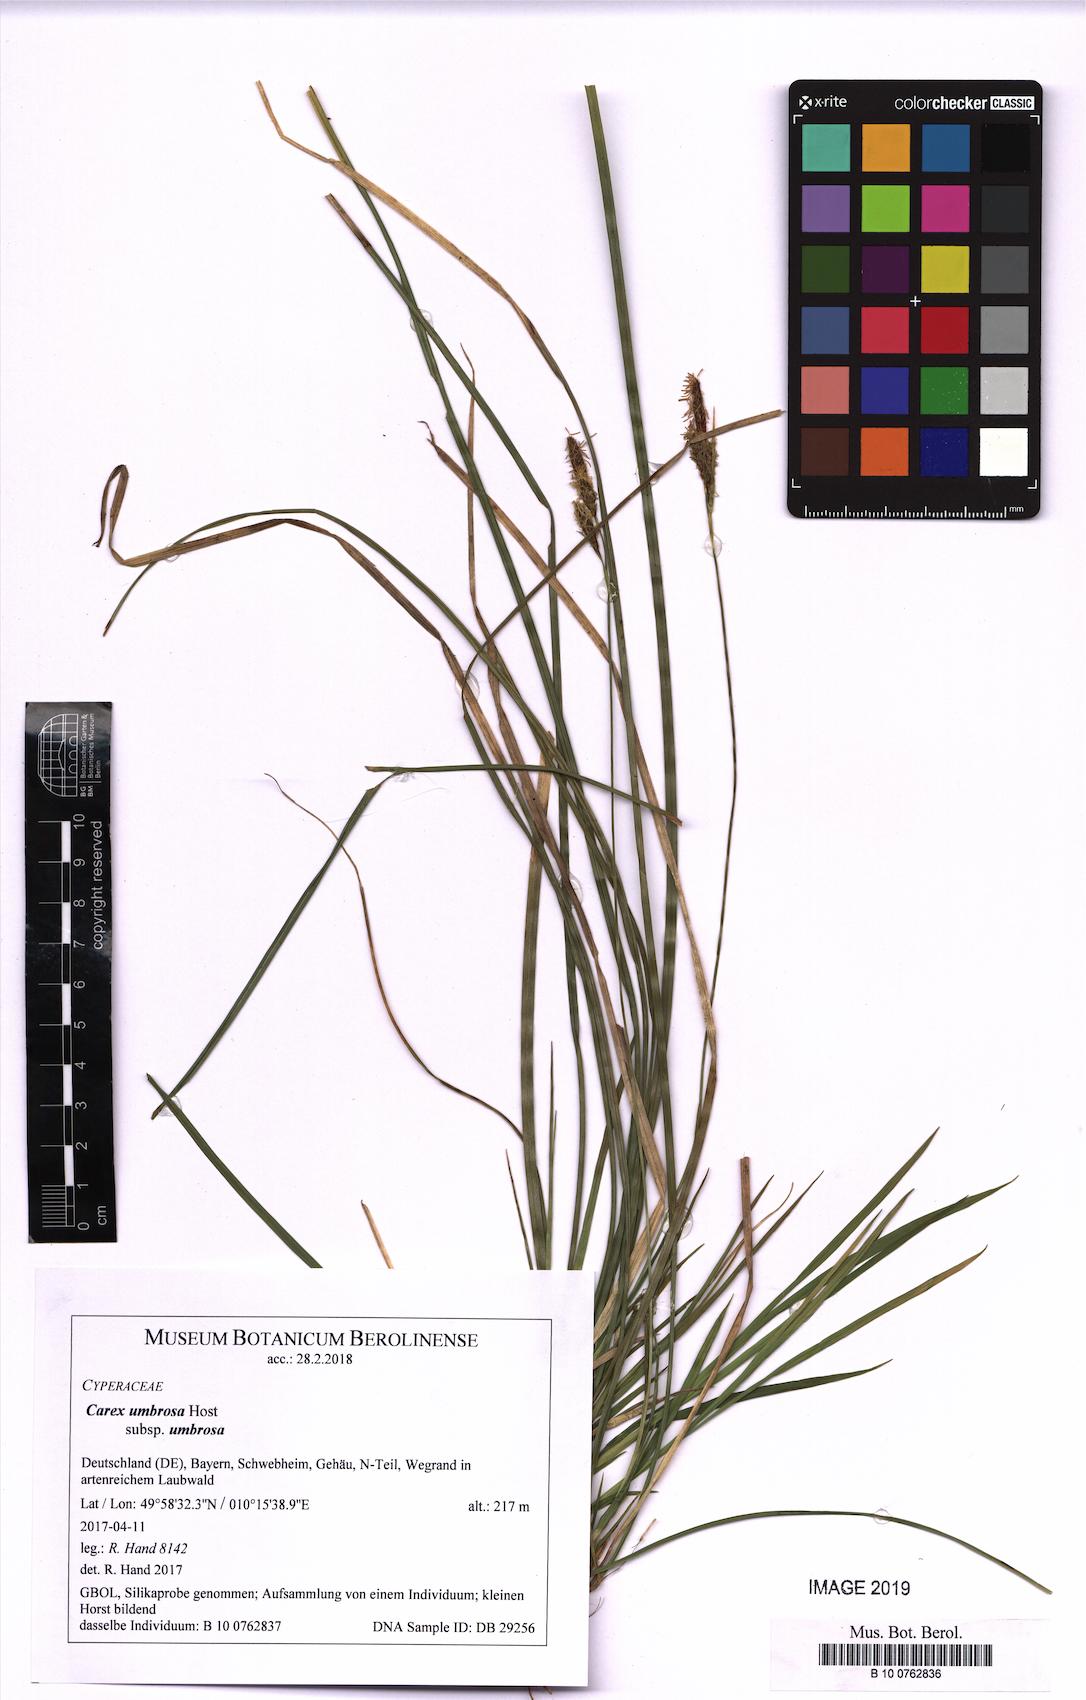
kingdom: Plantae
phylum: Tracheophyta
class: Liliopsida
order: Poales
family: Cyperaceae
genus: Carex
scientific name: Carex umbrosa
